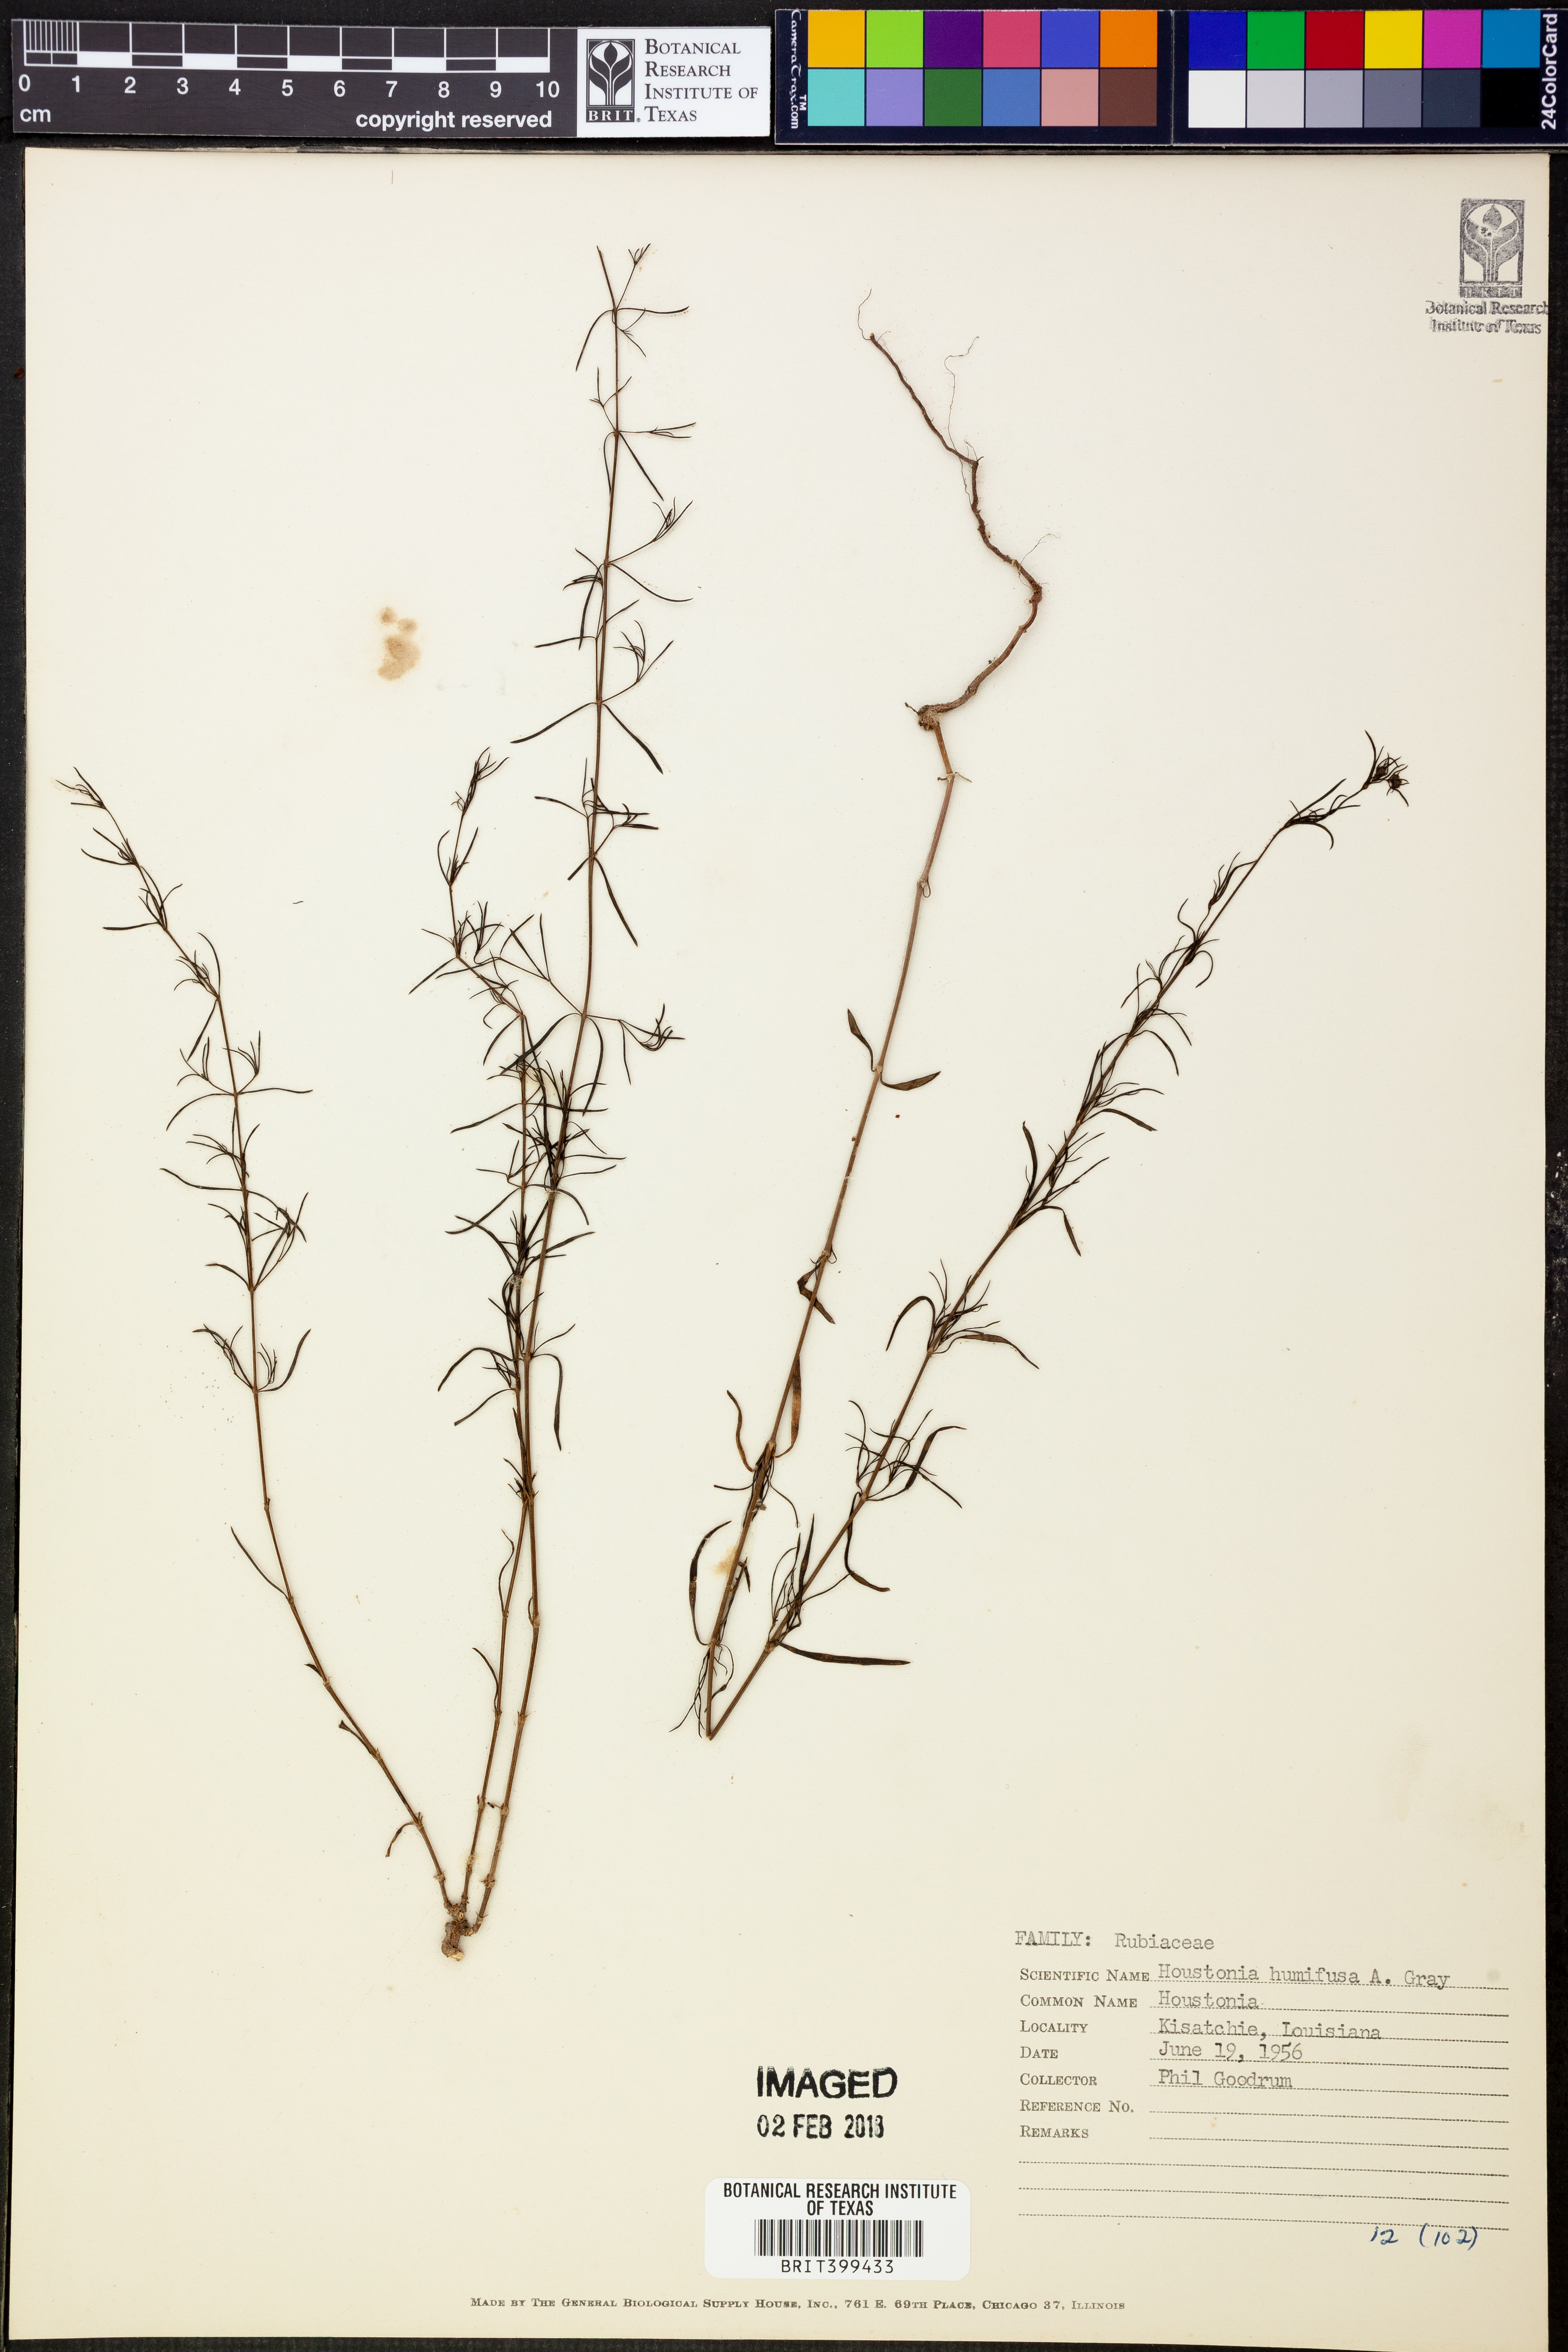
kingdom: Plantae
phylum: Tracheophyta
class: Magnoliopsida
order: Gentianales
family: Rubiaceae
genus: Houstonia
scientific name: Houstonia humifusa
